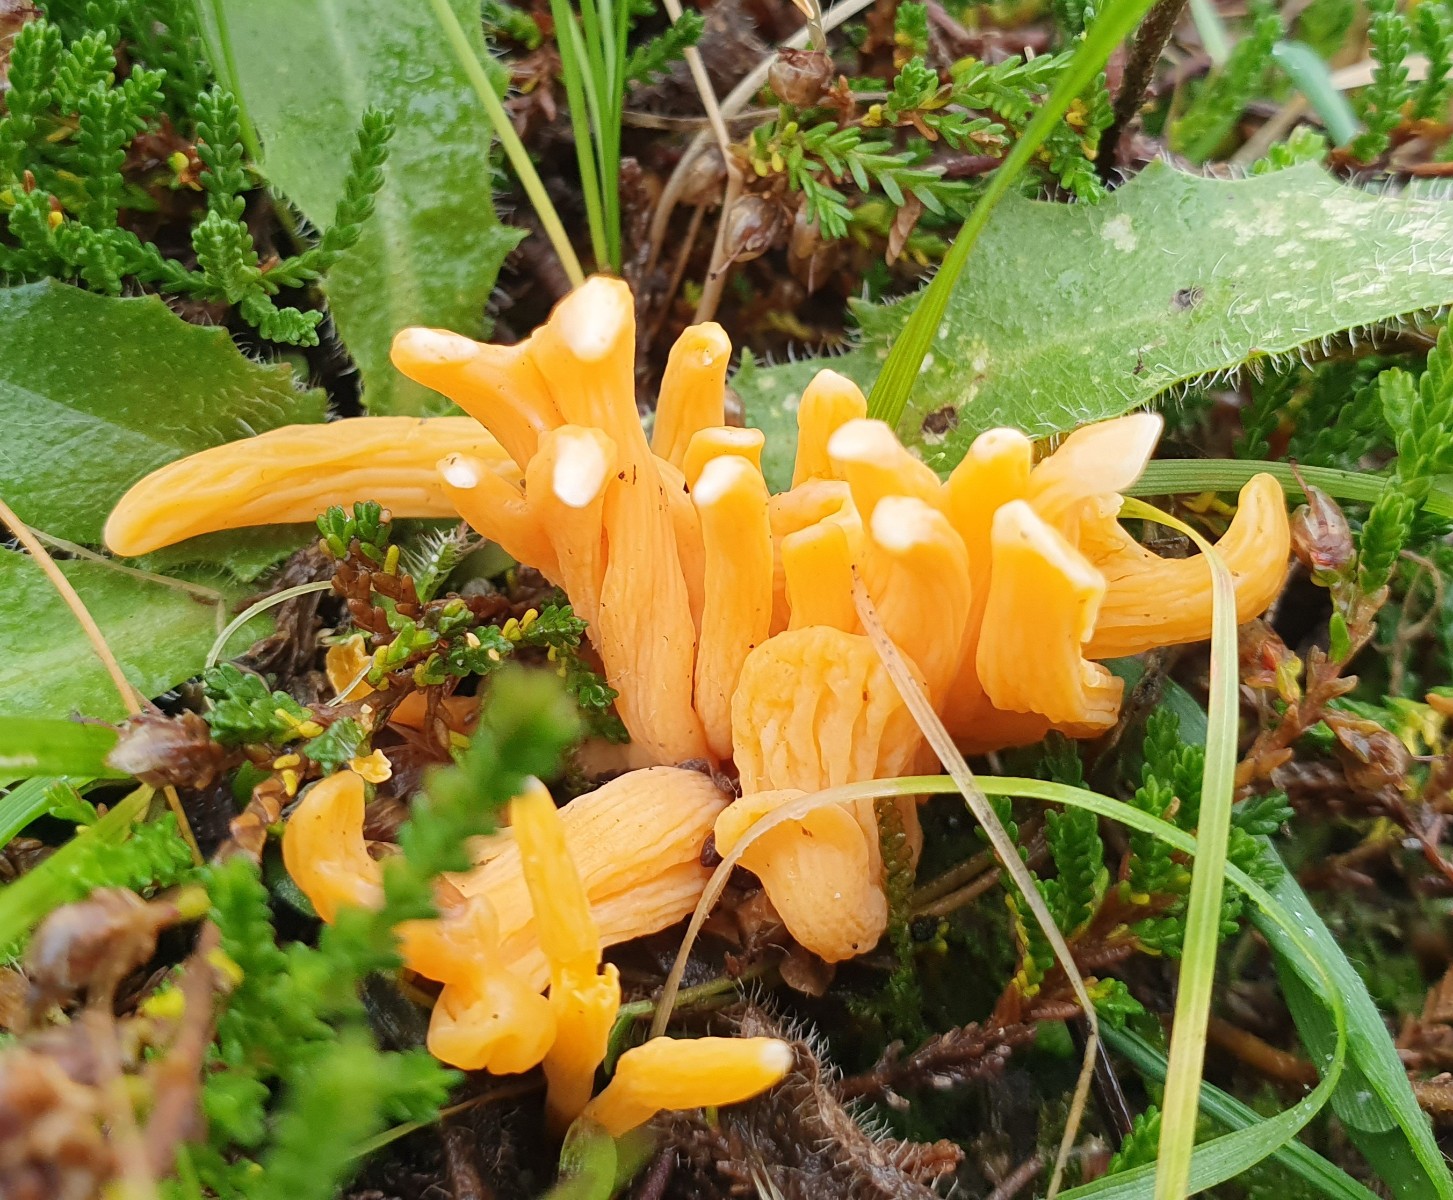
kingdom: Fungi
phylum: Basidiomycota
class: Agaricomycetes
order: Agaricales
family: Clavariaceae
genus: Clavulinopsis
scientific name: Clavulinopsis laeticolor
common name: flamme-køllesvamp
